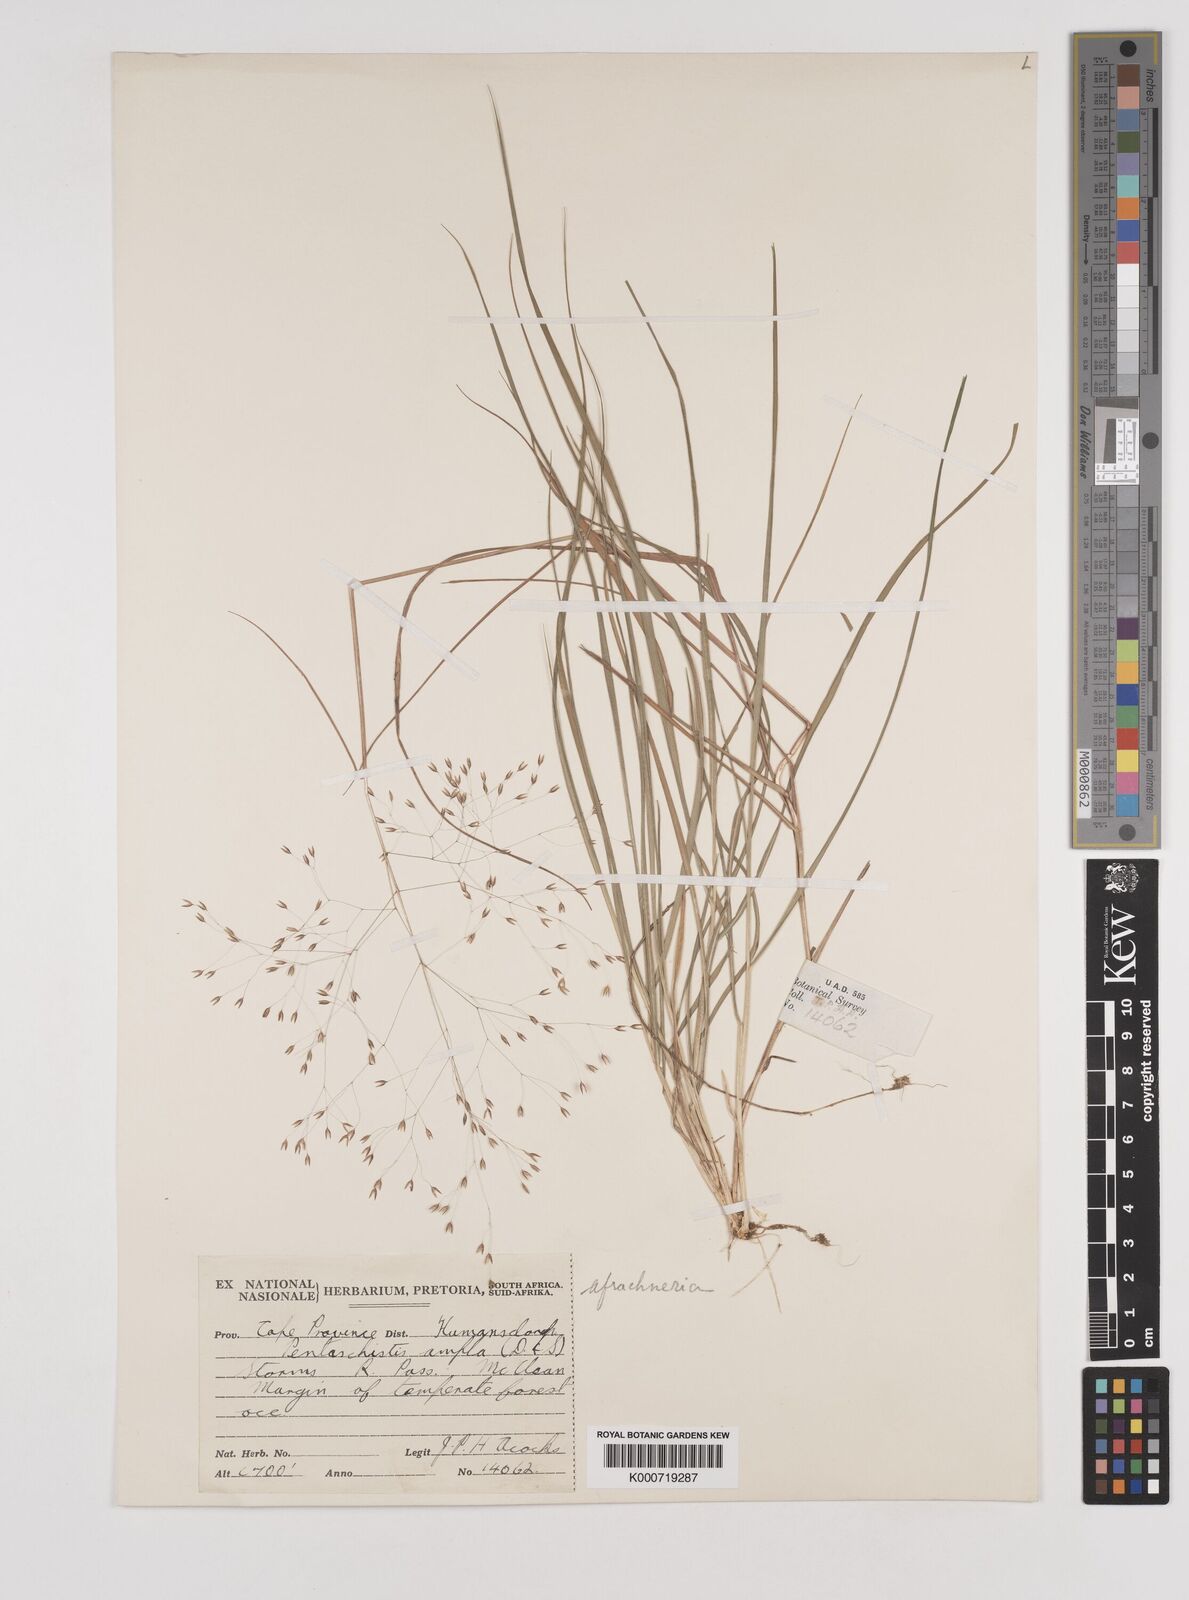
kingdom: Plantae
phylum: Tracheophyta
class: Liliopsida
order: Poales
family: Poaceae
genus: Pentameris
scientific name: Pentameris ampla
